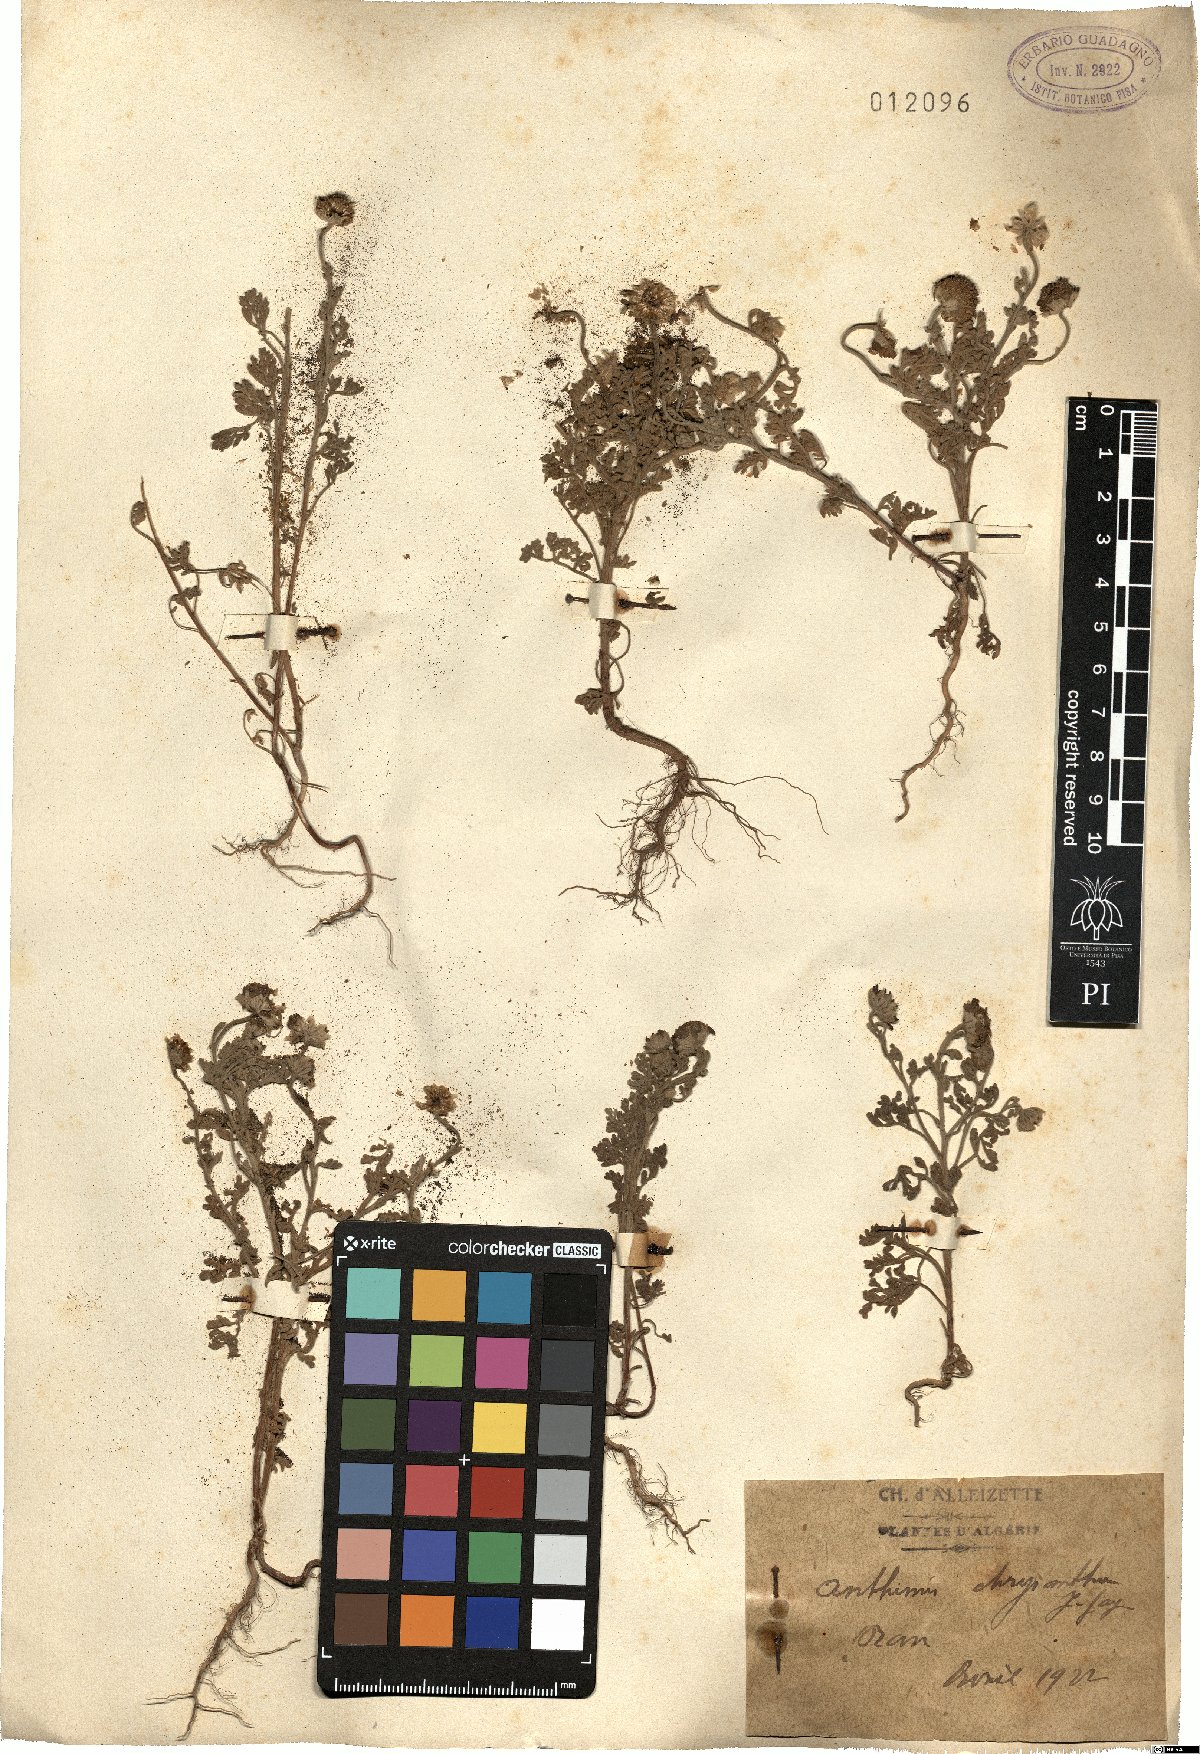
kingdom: Plantae
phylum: Tracheophyta
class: Magnoliopsida
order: Asterales
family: Asteraceae
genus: Anthemis
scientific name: Anthemis chrysantha
